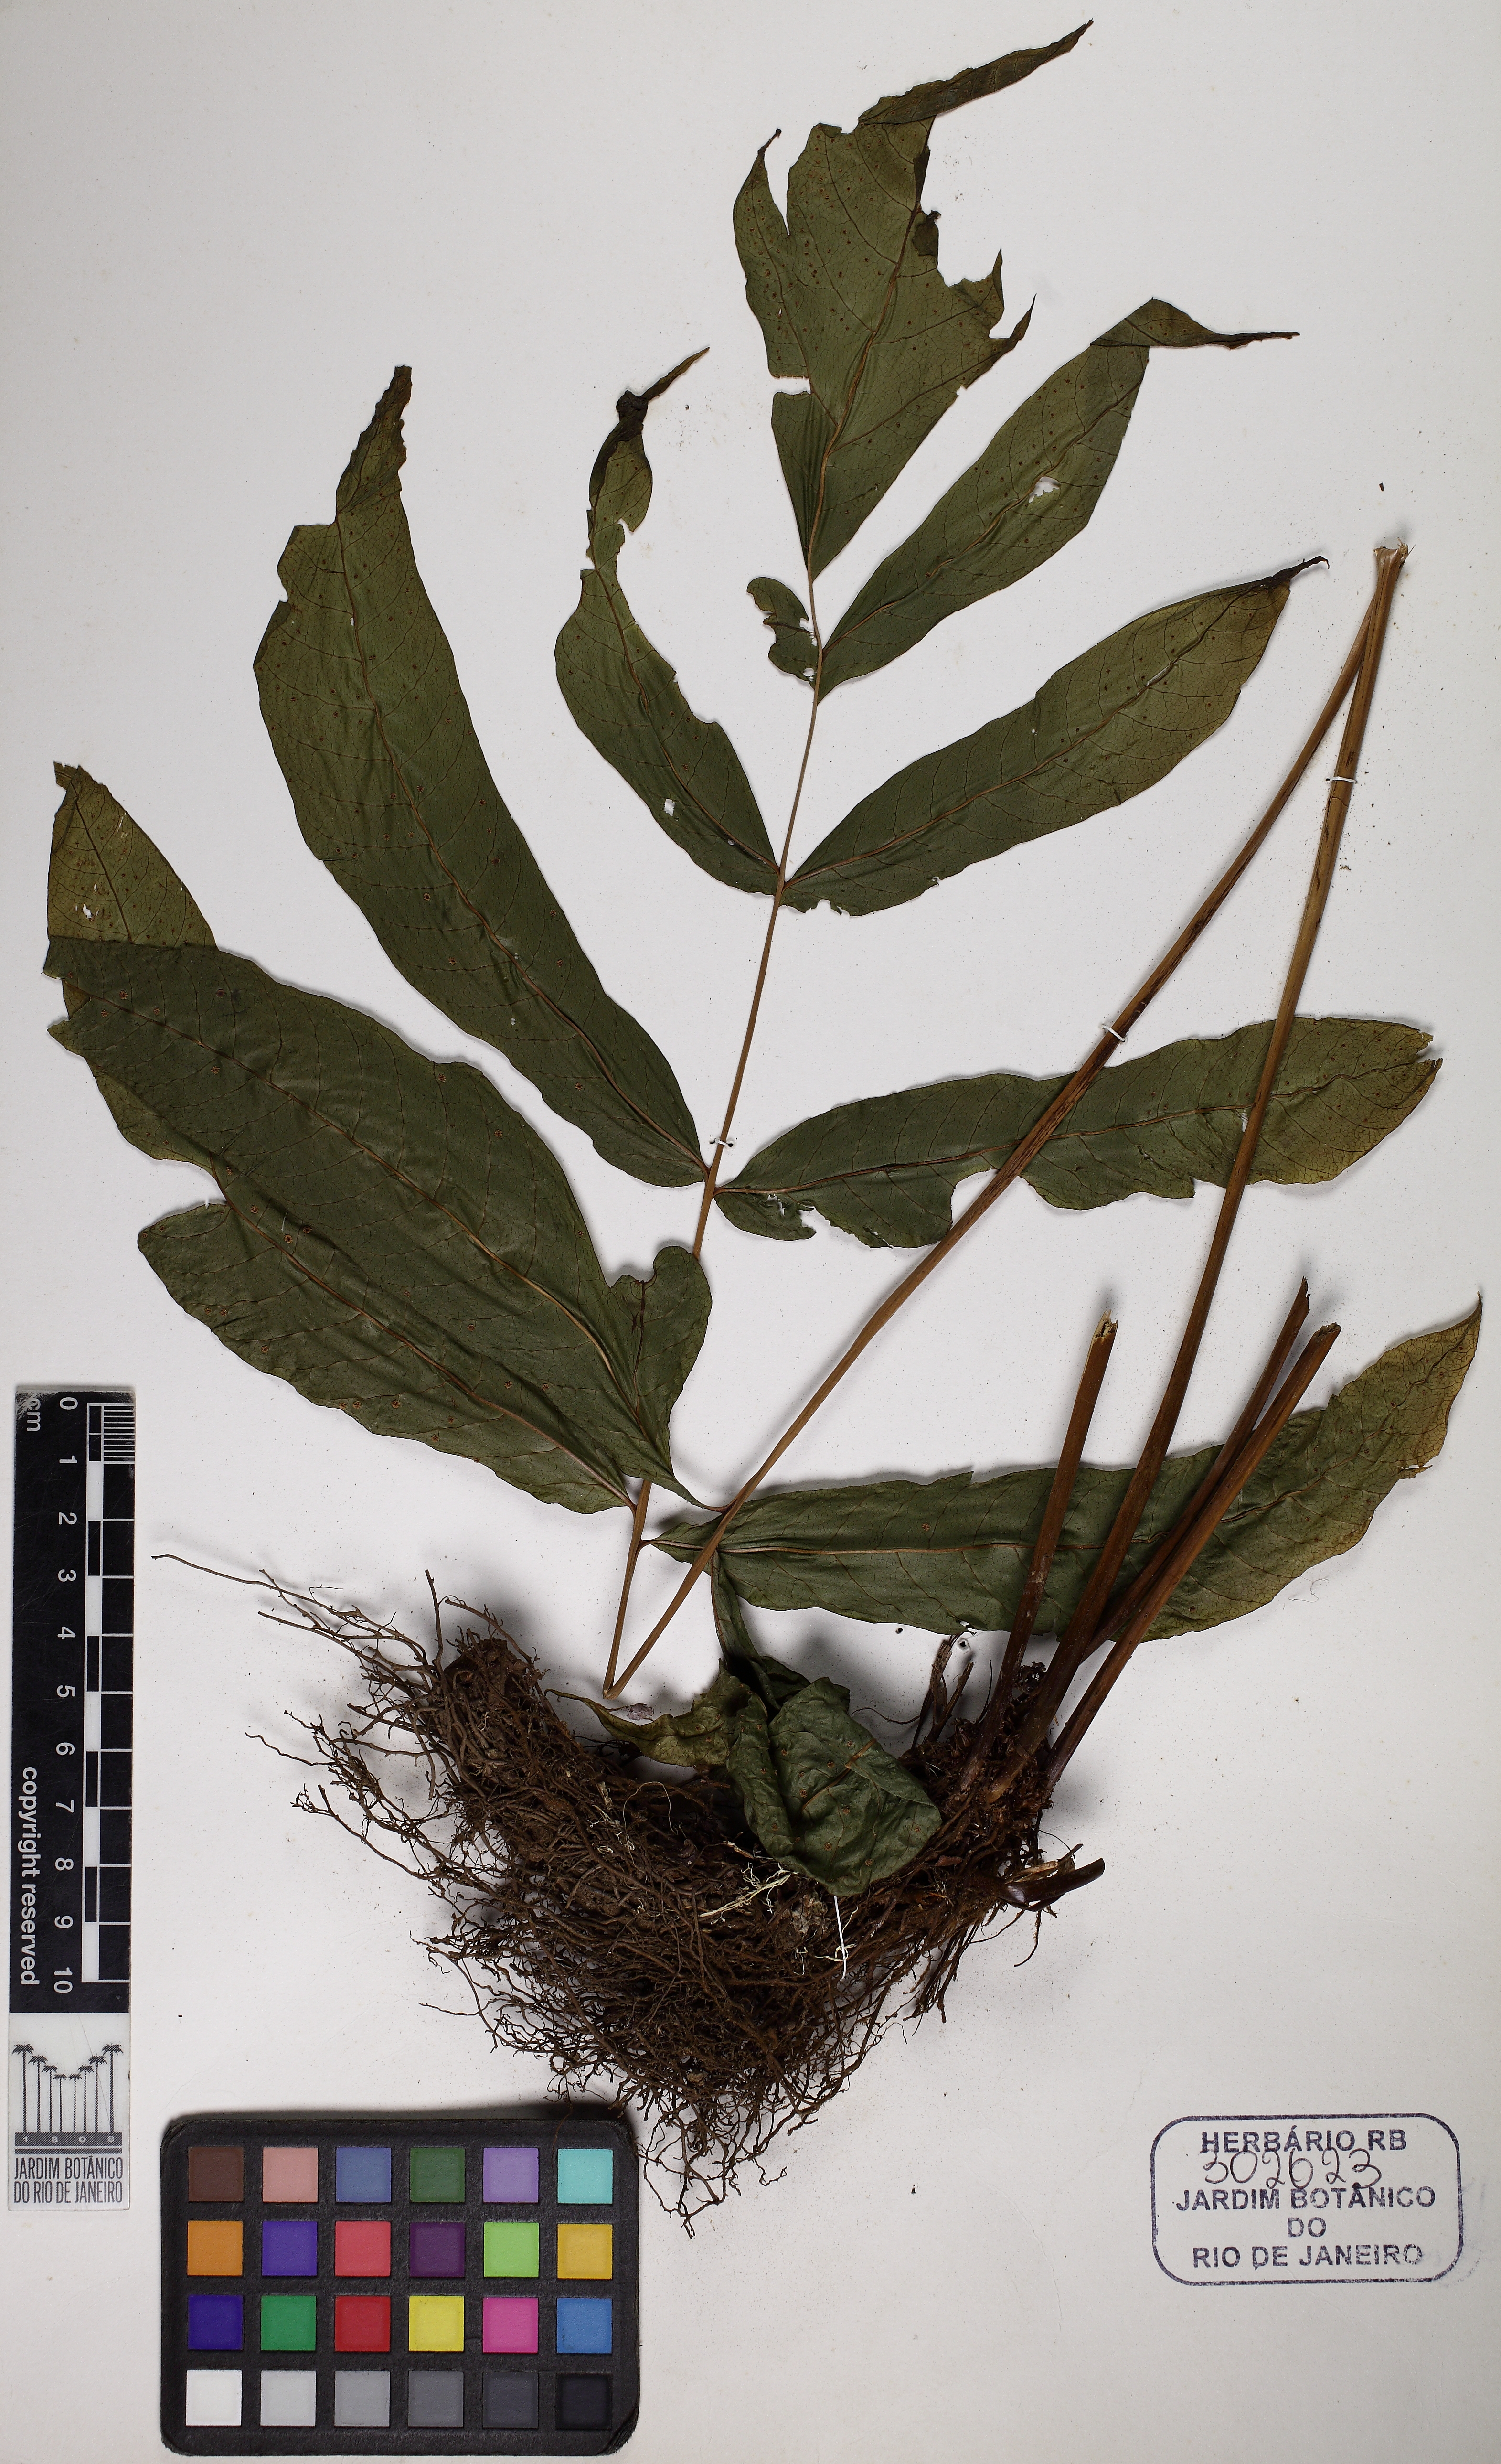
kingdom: Plantae
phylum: Tracheophyta
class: Polypodiopsida
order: Polypodiales
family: Tectariaceae
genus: Tectaria
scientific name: Tectaria incisa
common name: Incised halberd fern
